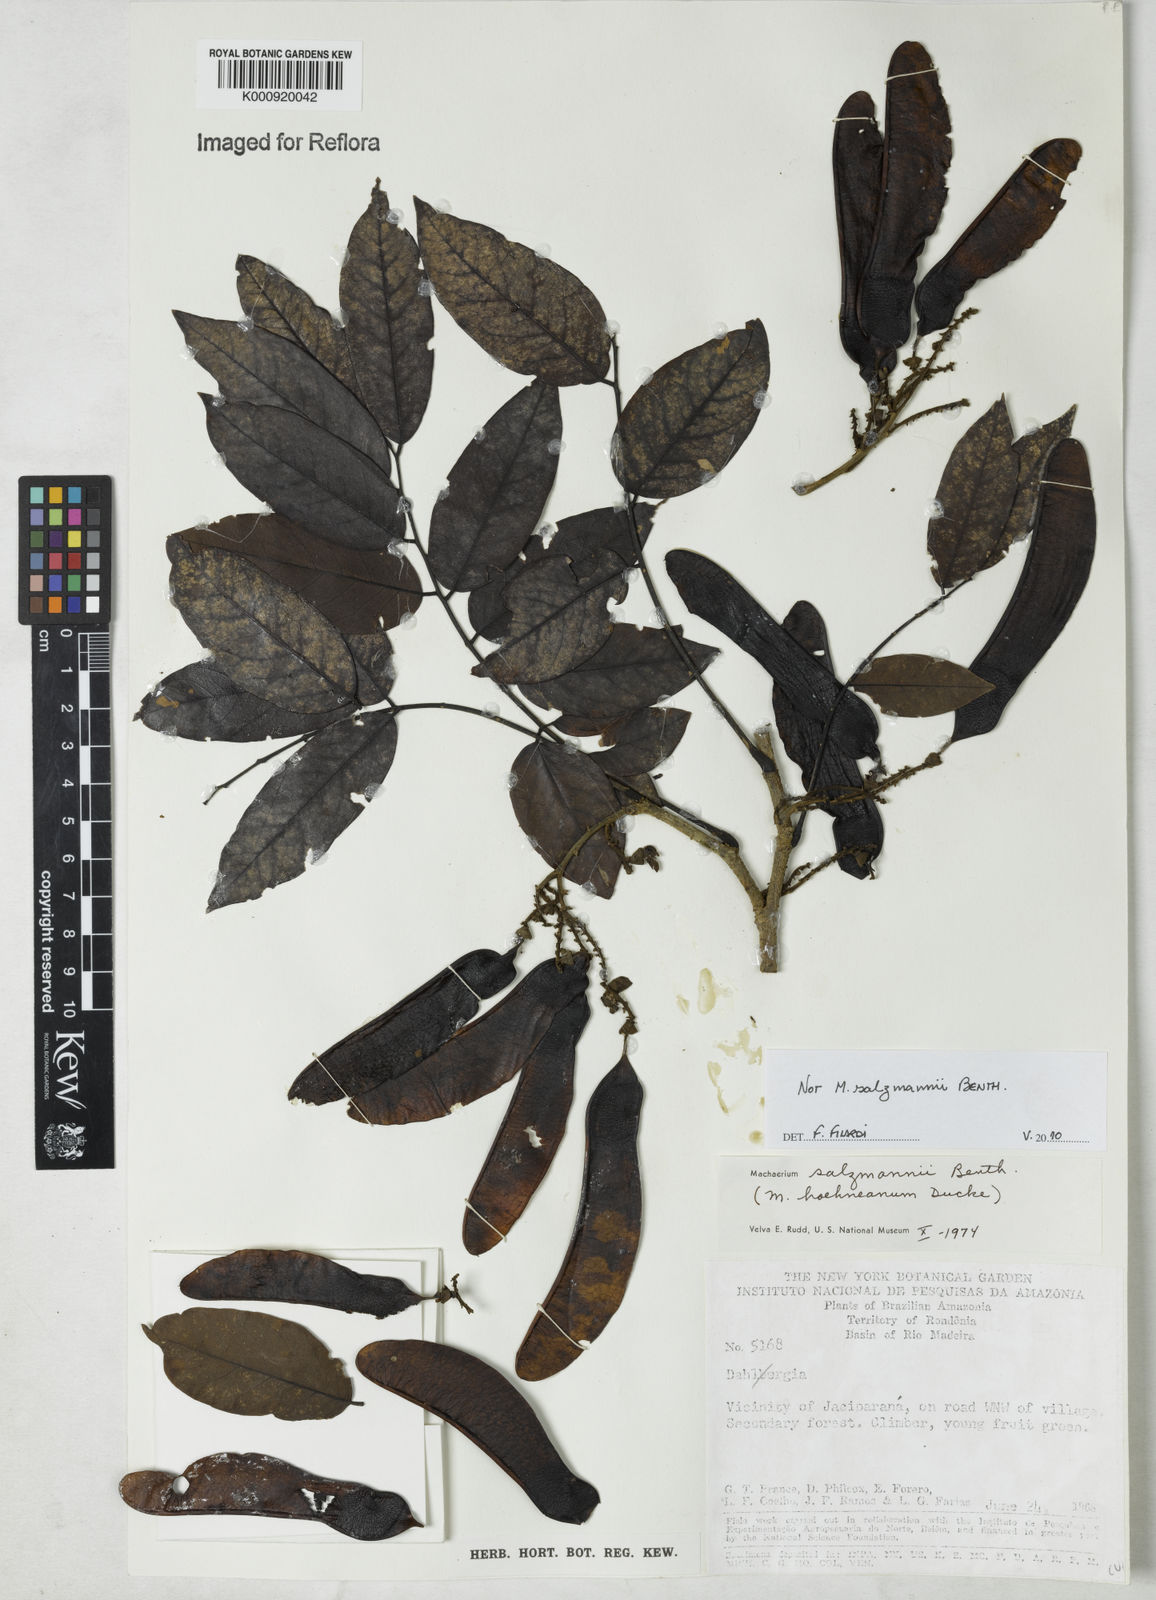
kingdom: Plantae
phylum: Tracheophyta
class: Magnoliopsida
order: Fabales
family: Fabaceae
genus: Machaerium
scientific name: Machaerium
